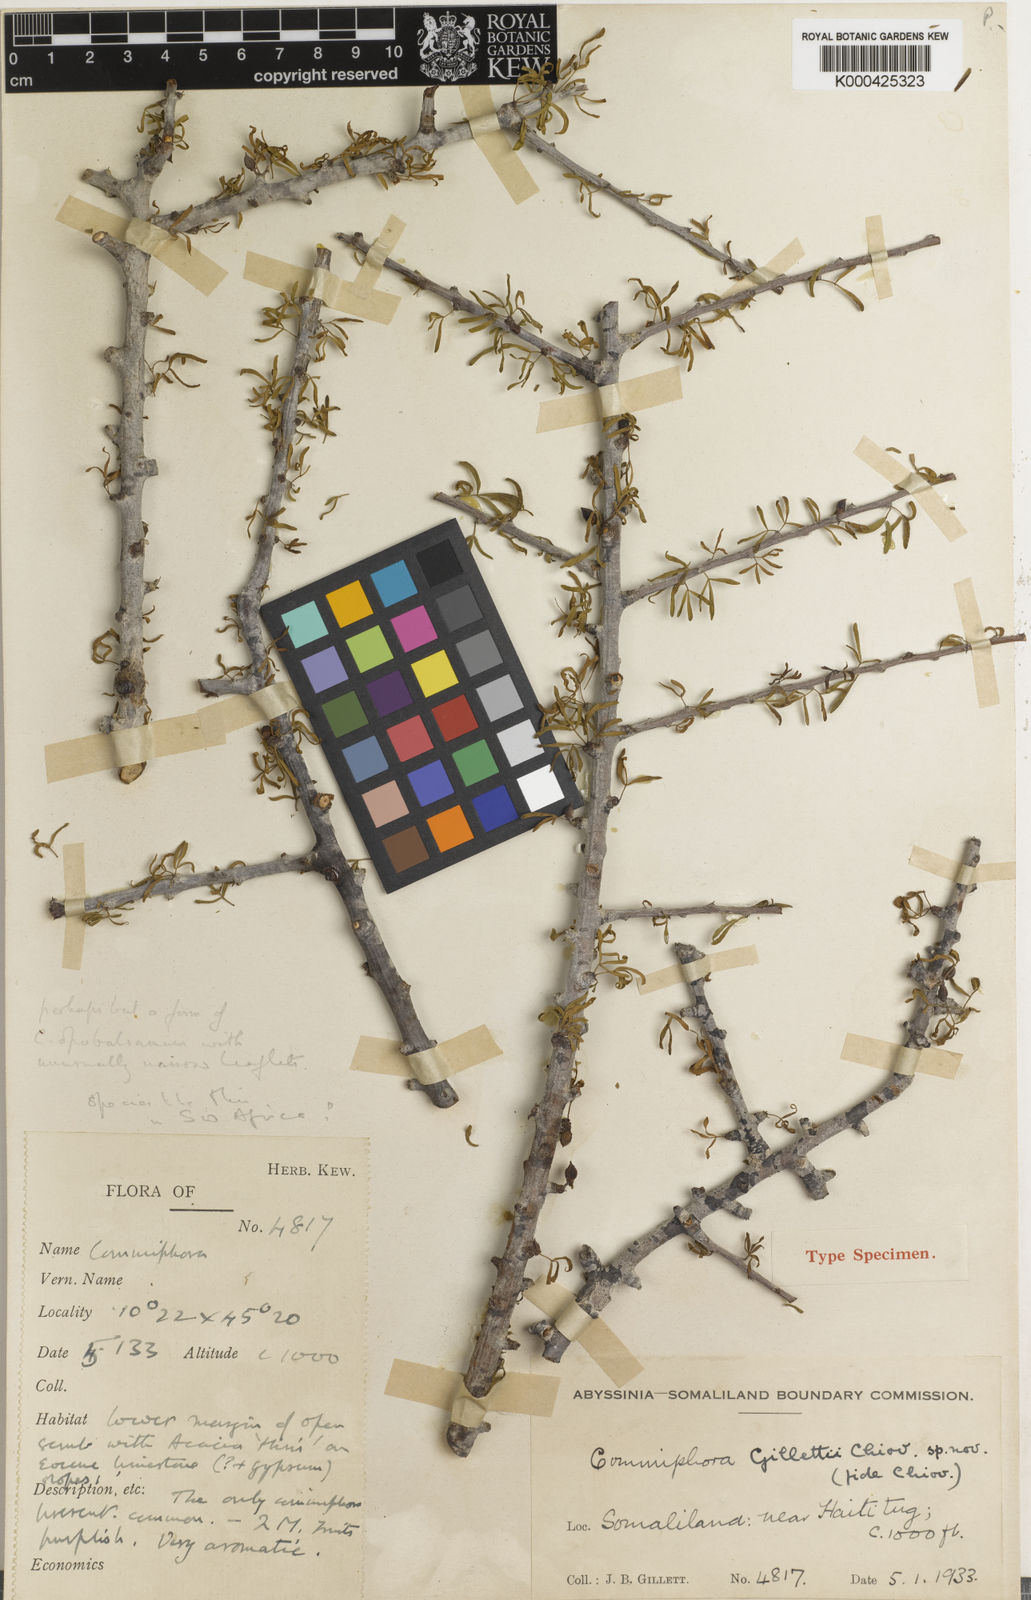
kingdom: Plantae
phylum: Tracheophyta
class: Magnoliopsida
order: Sapindales
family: Burseraceae
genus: Commiphora
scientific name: Commiphora gileadensis
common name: Balm-of-gilead
